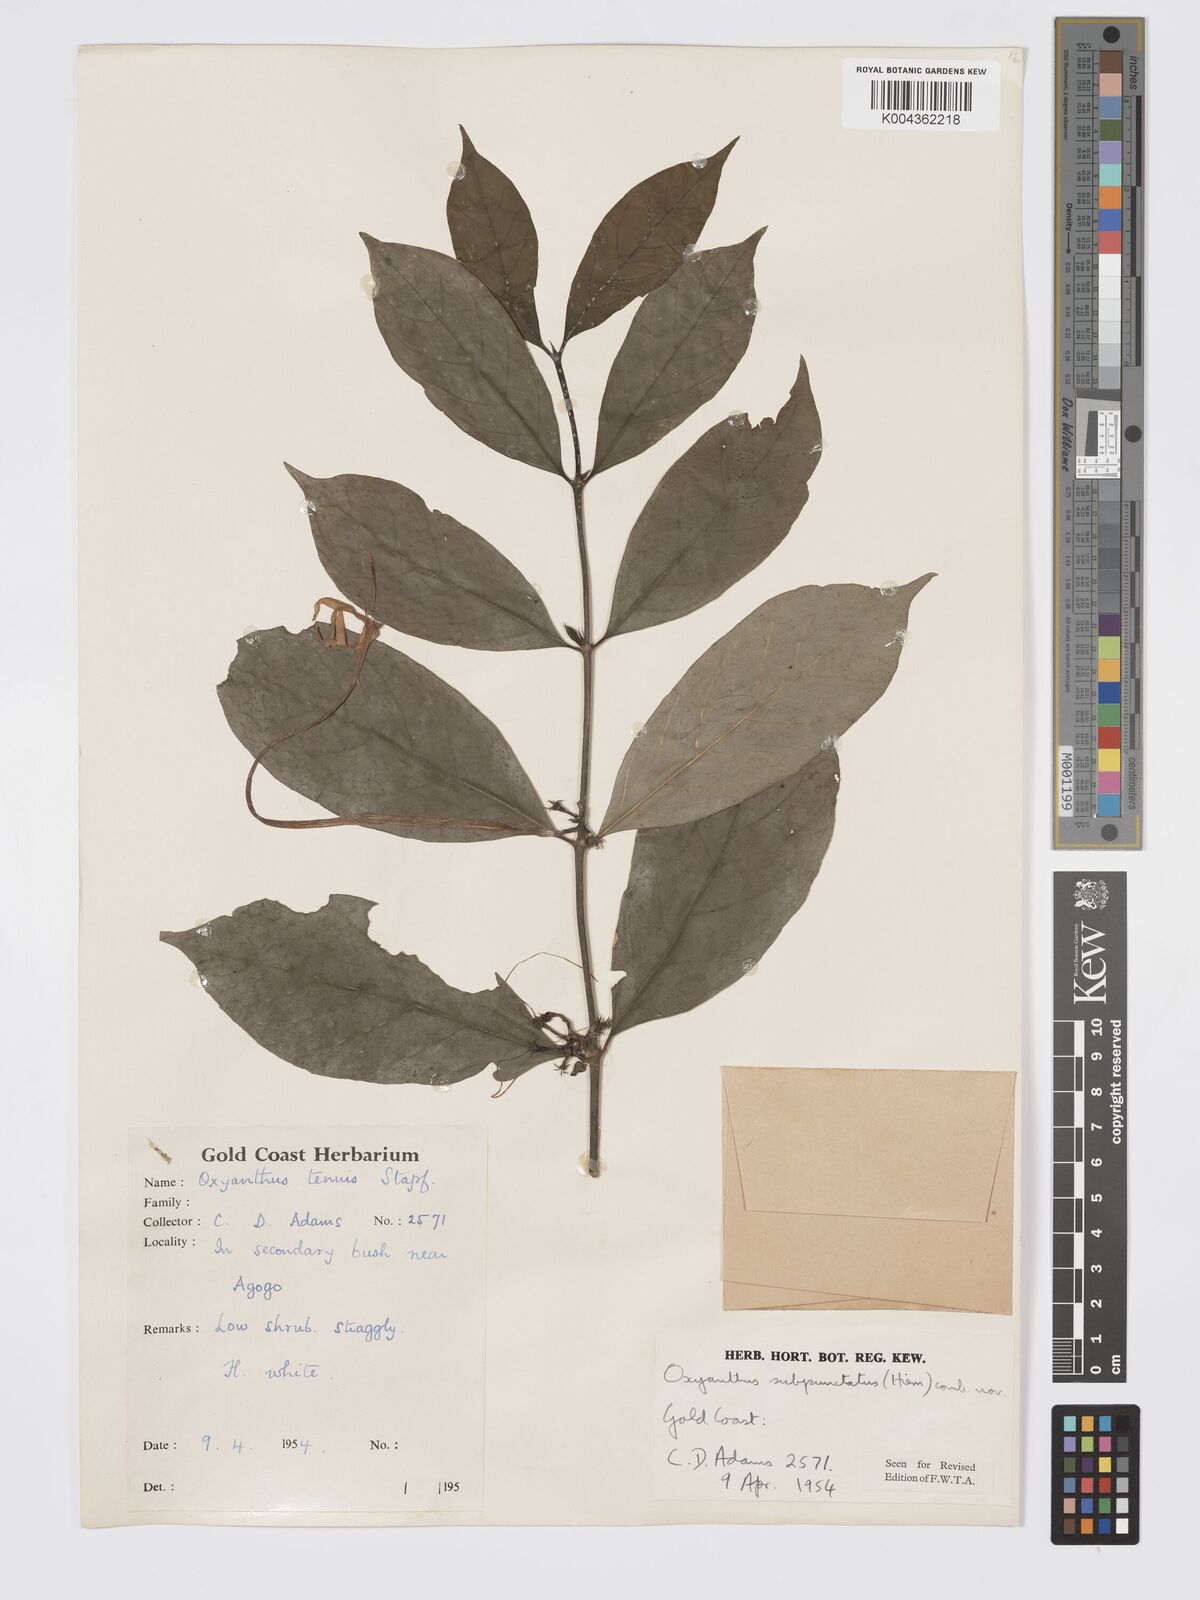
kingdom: Plantae
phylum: Tracheophyta
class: Magnoliopsida
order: Gentianales
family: Rubiaceae
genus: Oxyanthus
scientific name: Oxyanthus subpunctatus
